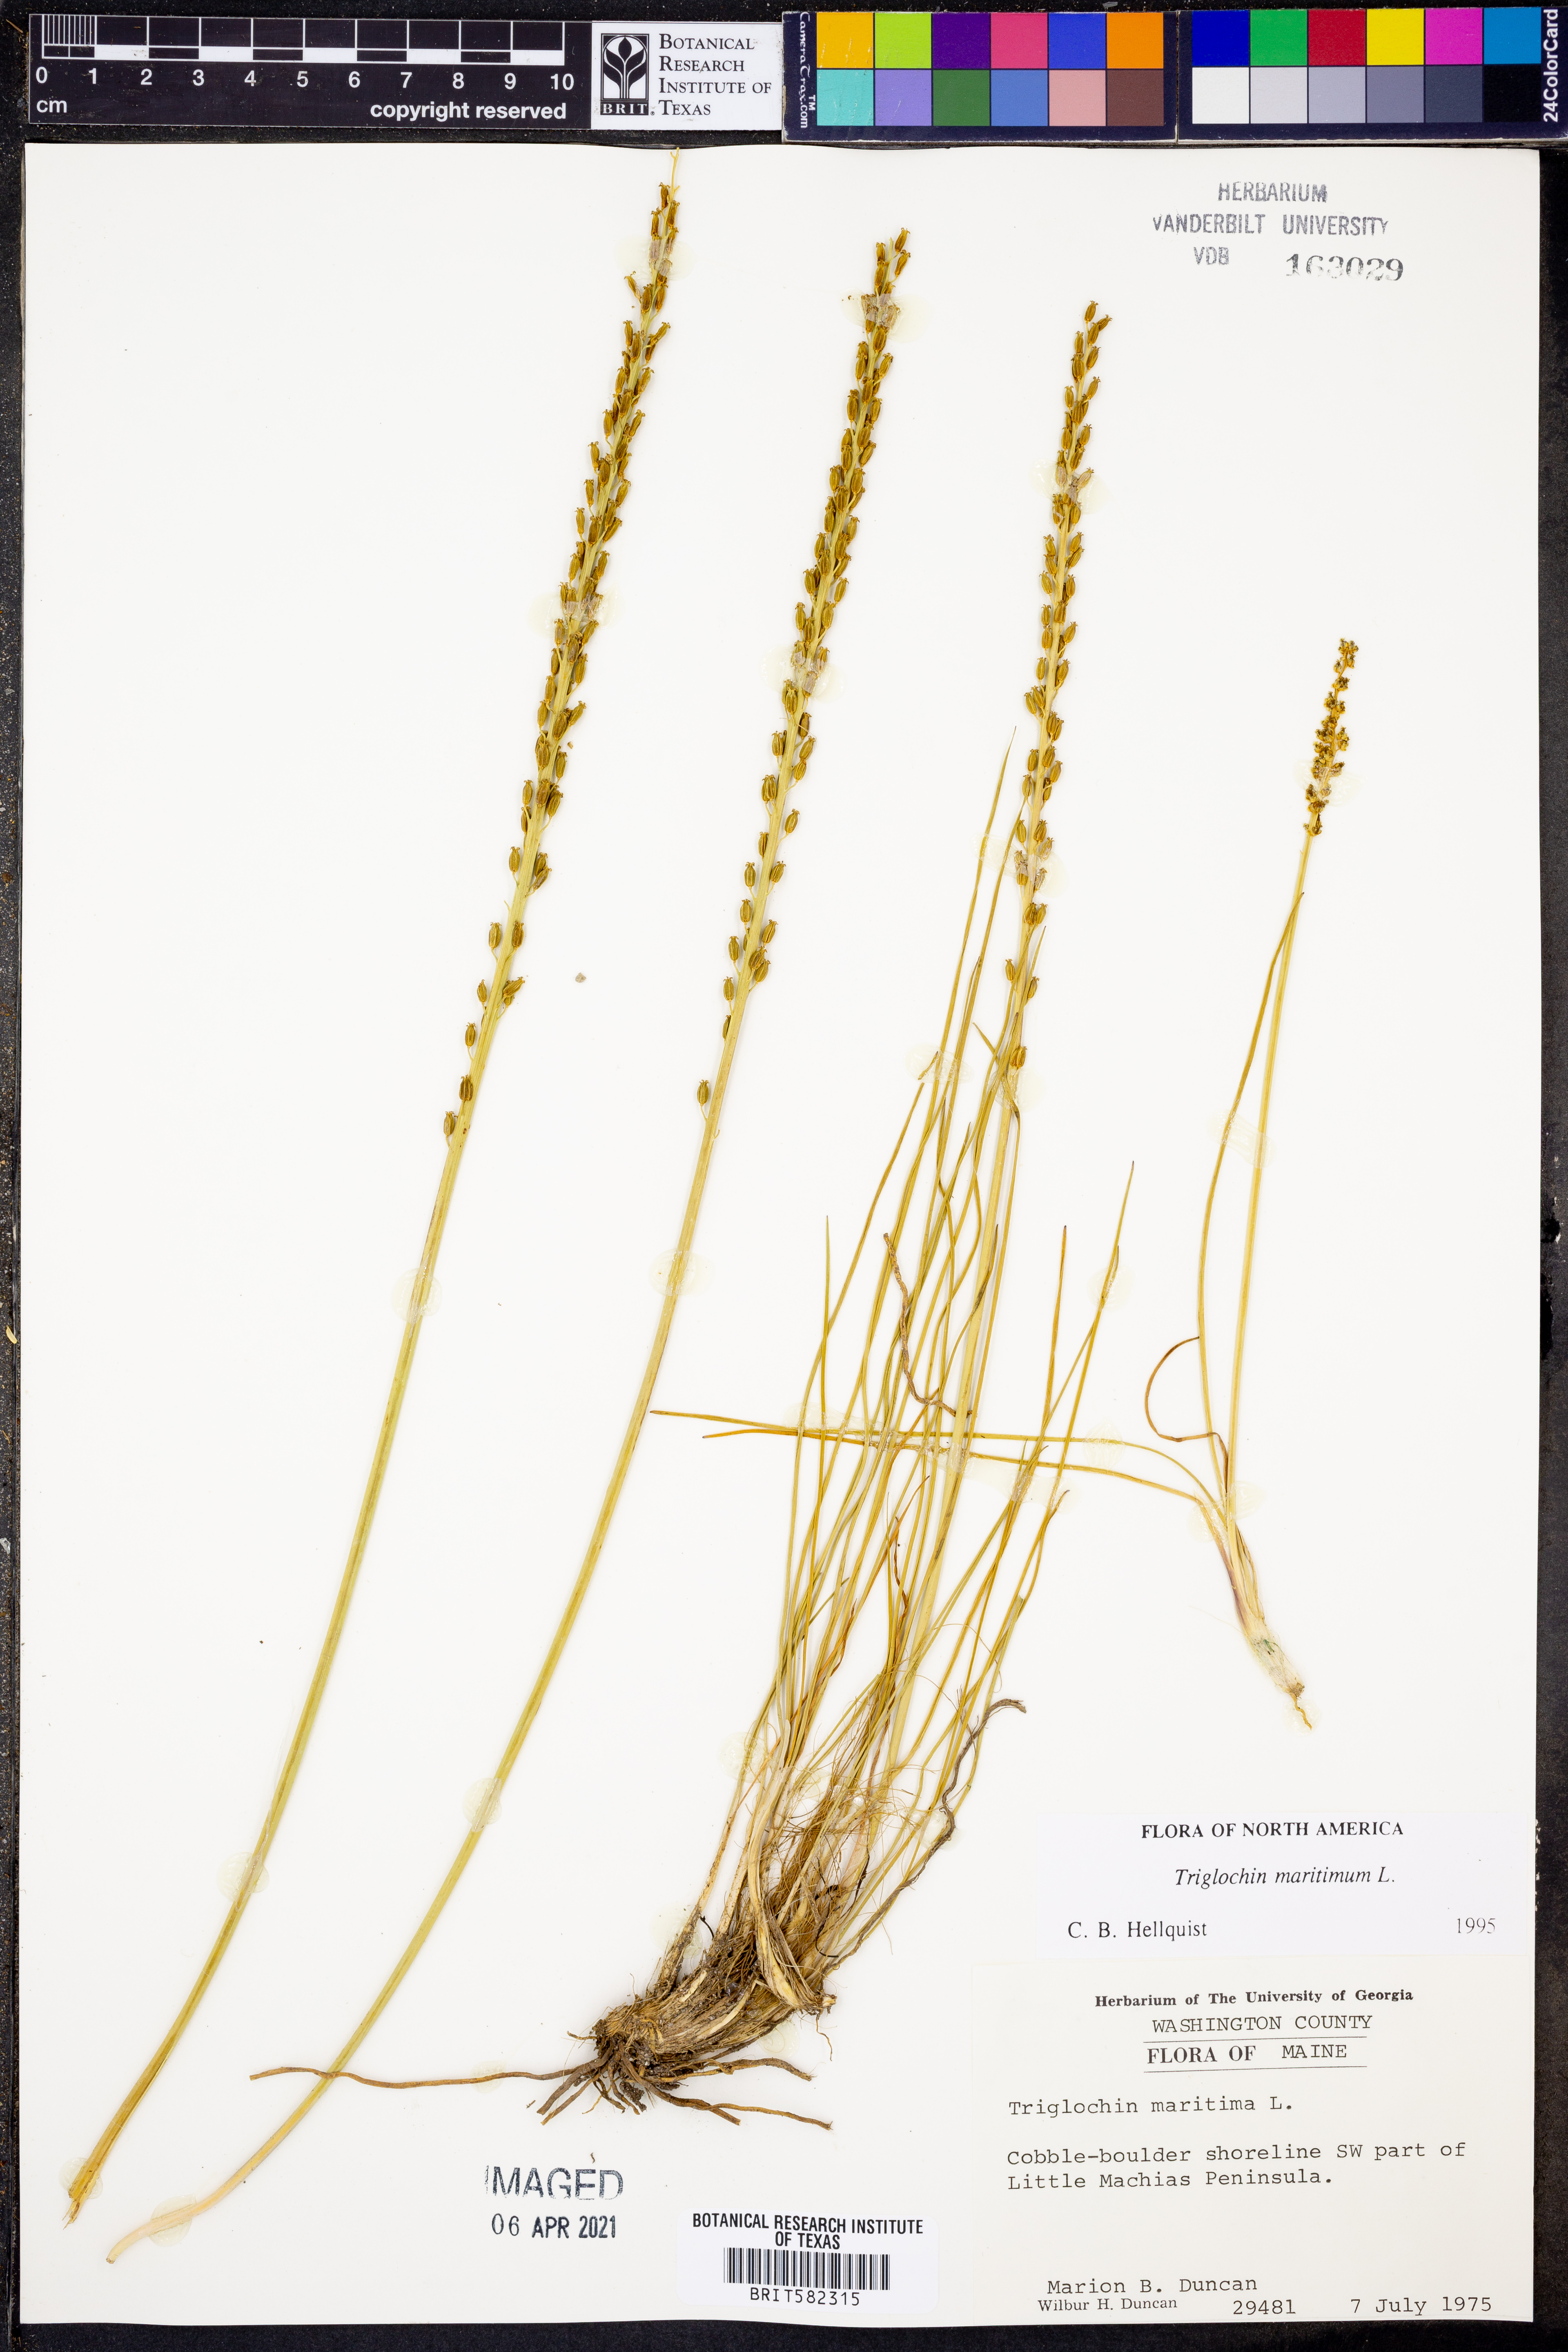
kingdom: Plantae
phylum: Tracheophyta
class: Liliopsida
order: Alismatales
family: Juncaginaceae
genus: Triglochin
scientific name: Triglochin maritima
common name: Sea arrowgrass
